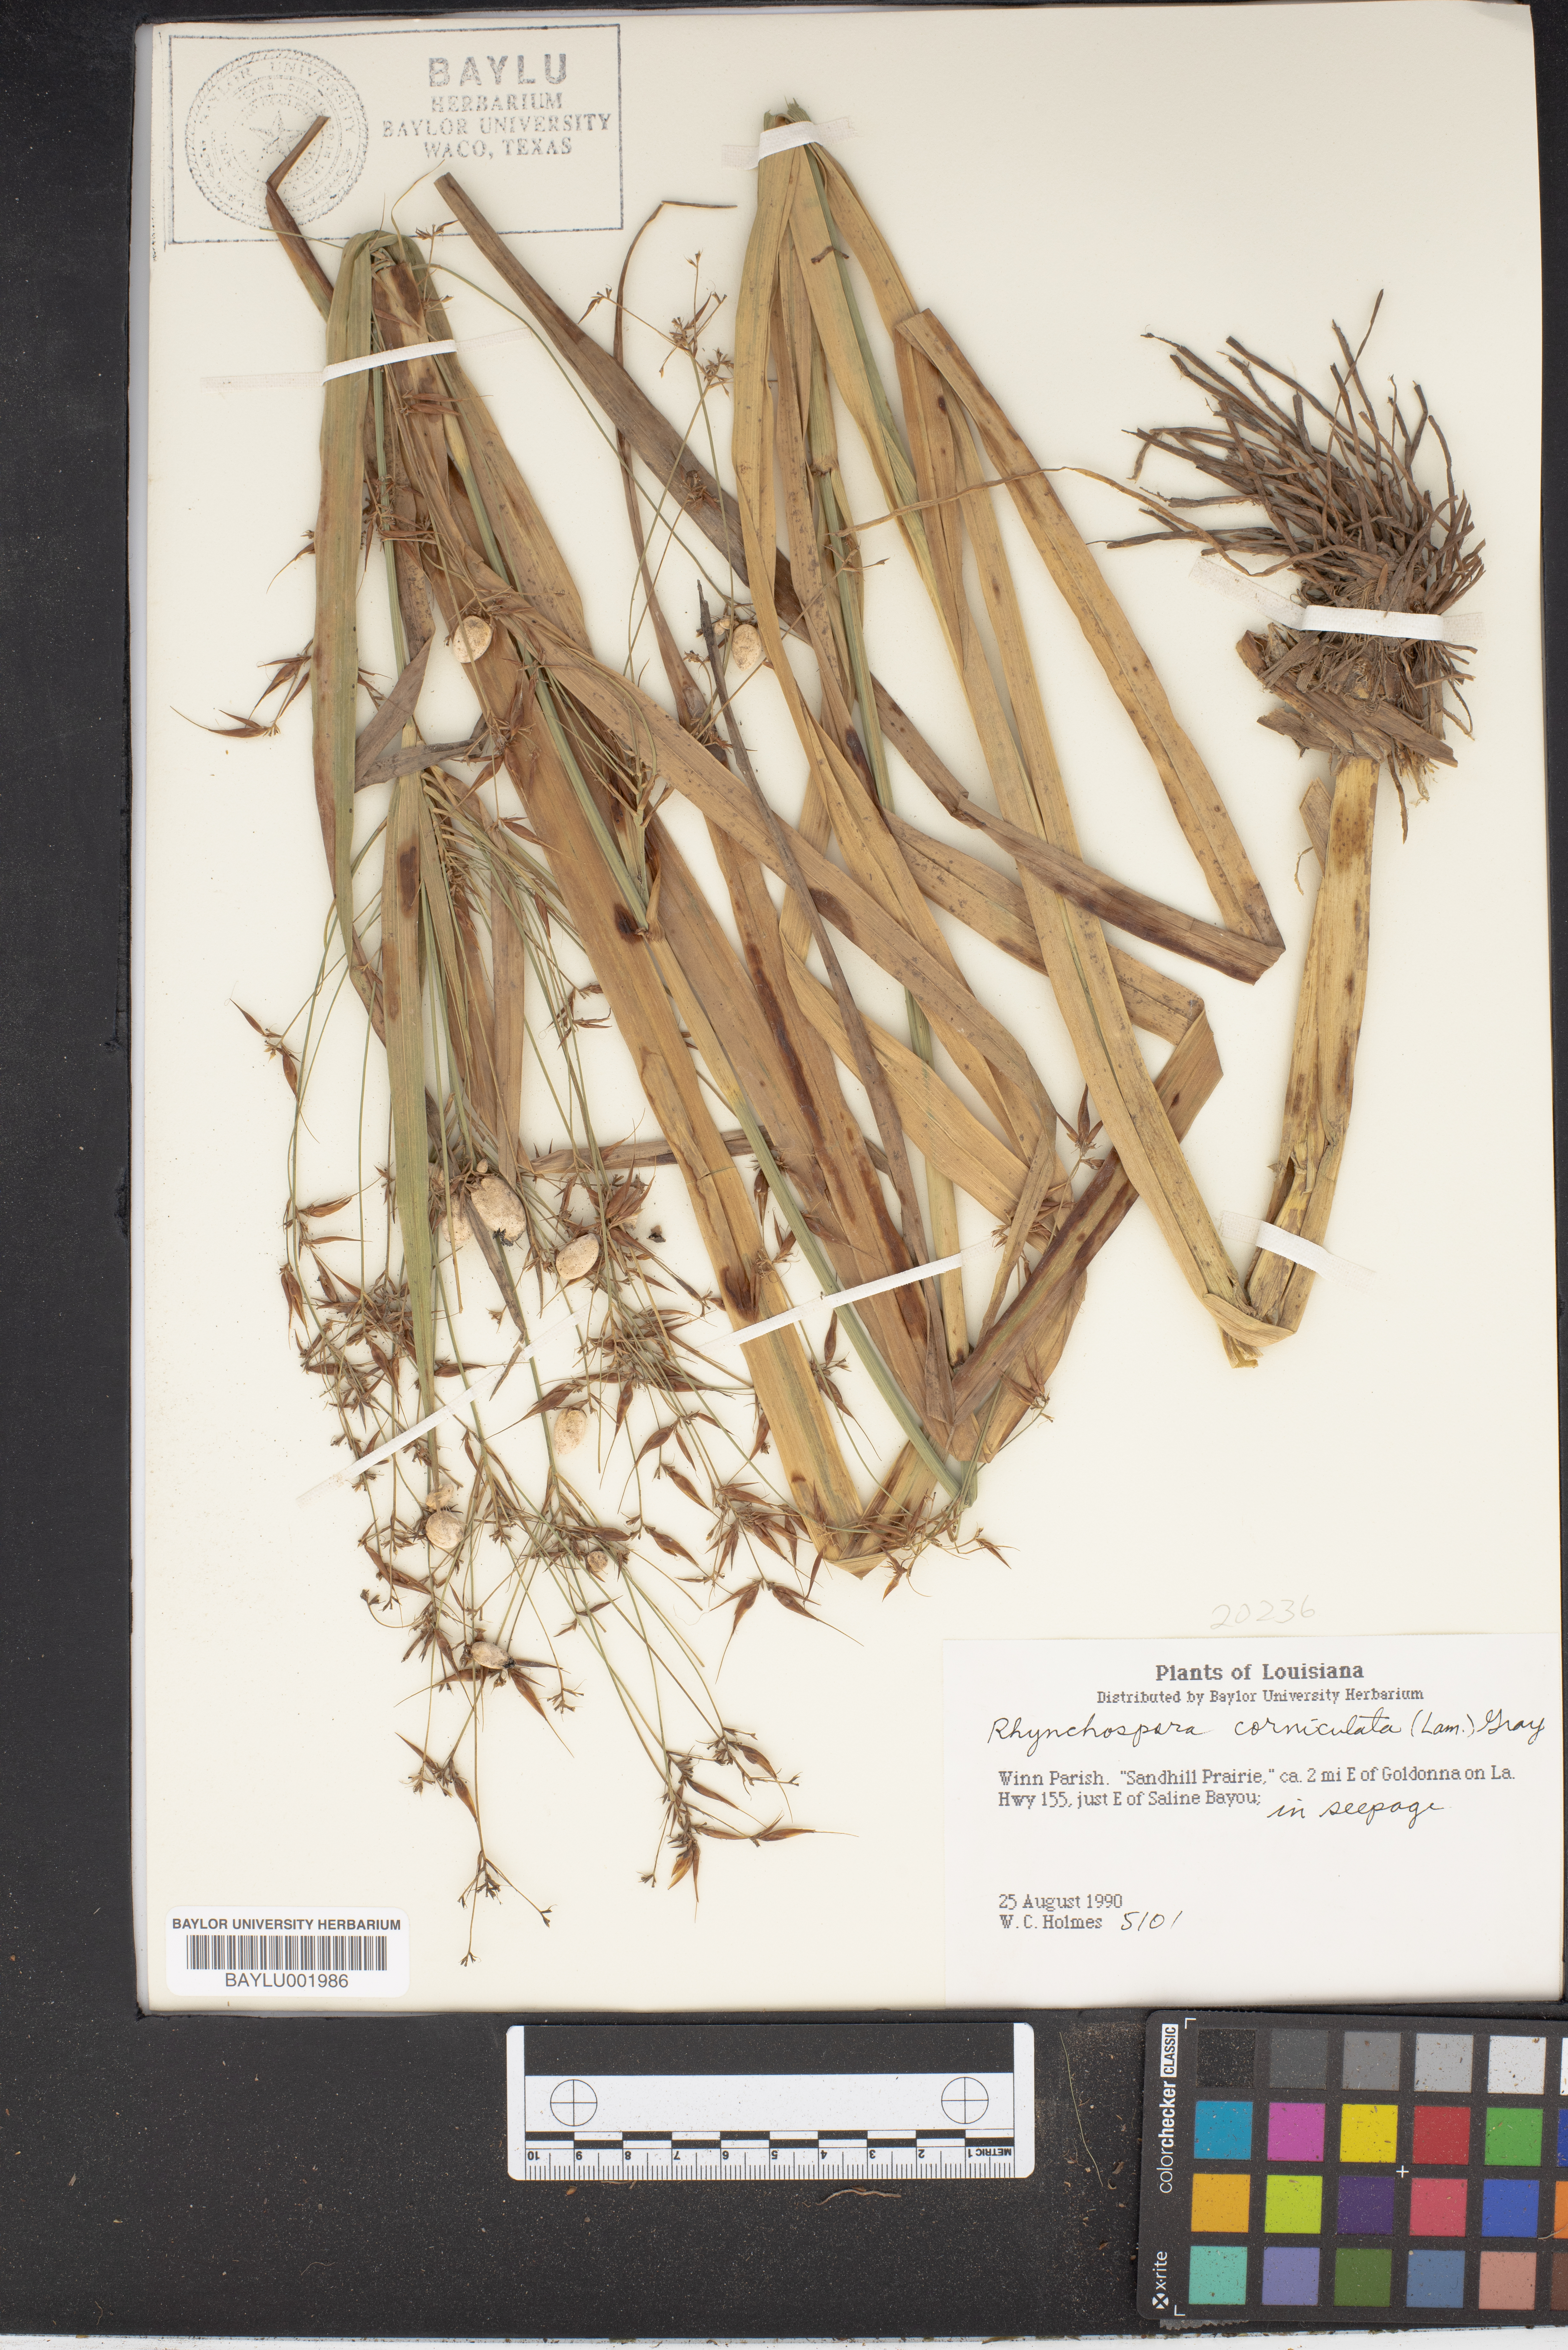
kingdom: Plantae
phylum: Tracheophyta
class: Liliopsida
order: Poales
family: Cyperaceae
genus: Rhynchospora
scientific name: Rhynchospora corniculata
